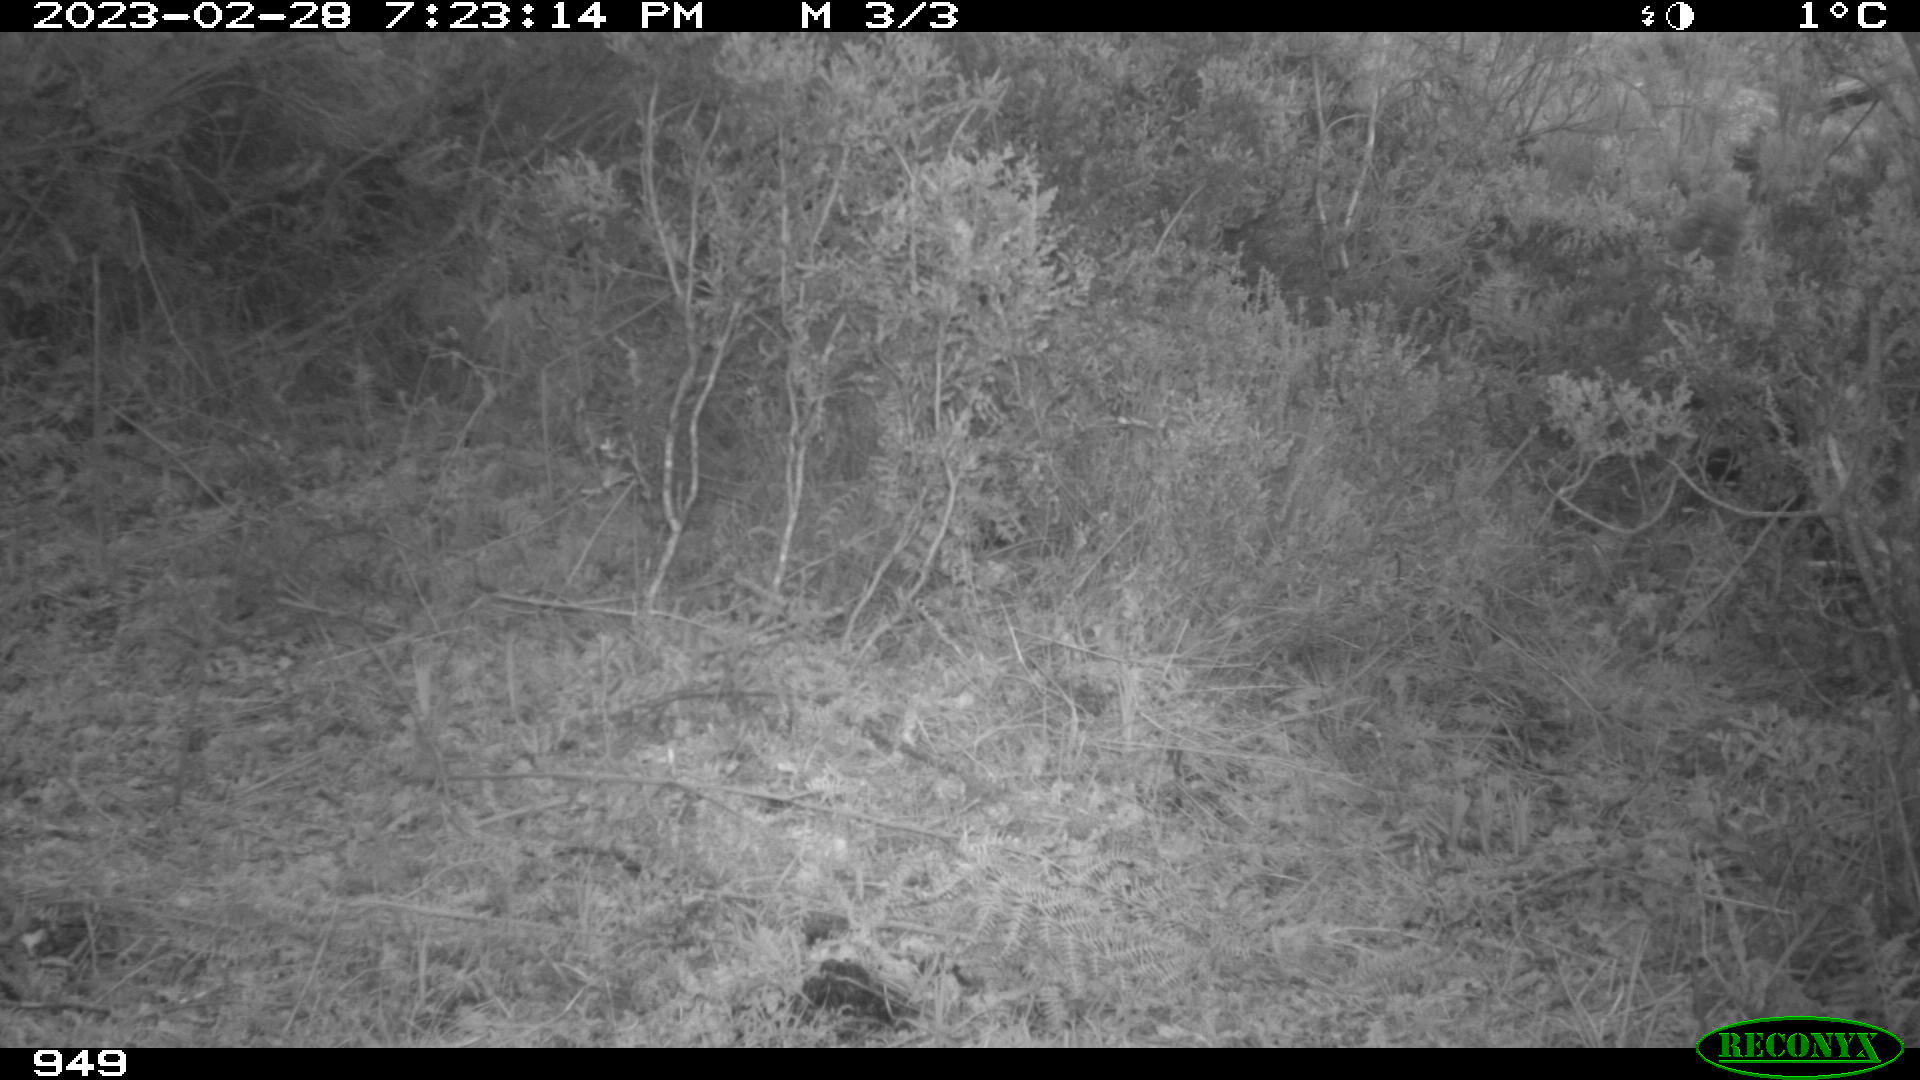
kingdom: Animalia
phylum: Chordata
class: Mammalia
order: Artiodactyla
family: Suidae
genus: Sus
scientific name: Sus scrofa
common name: Wild boar
